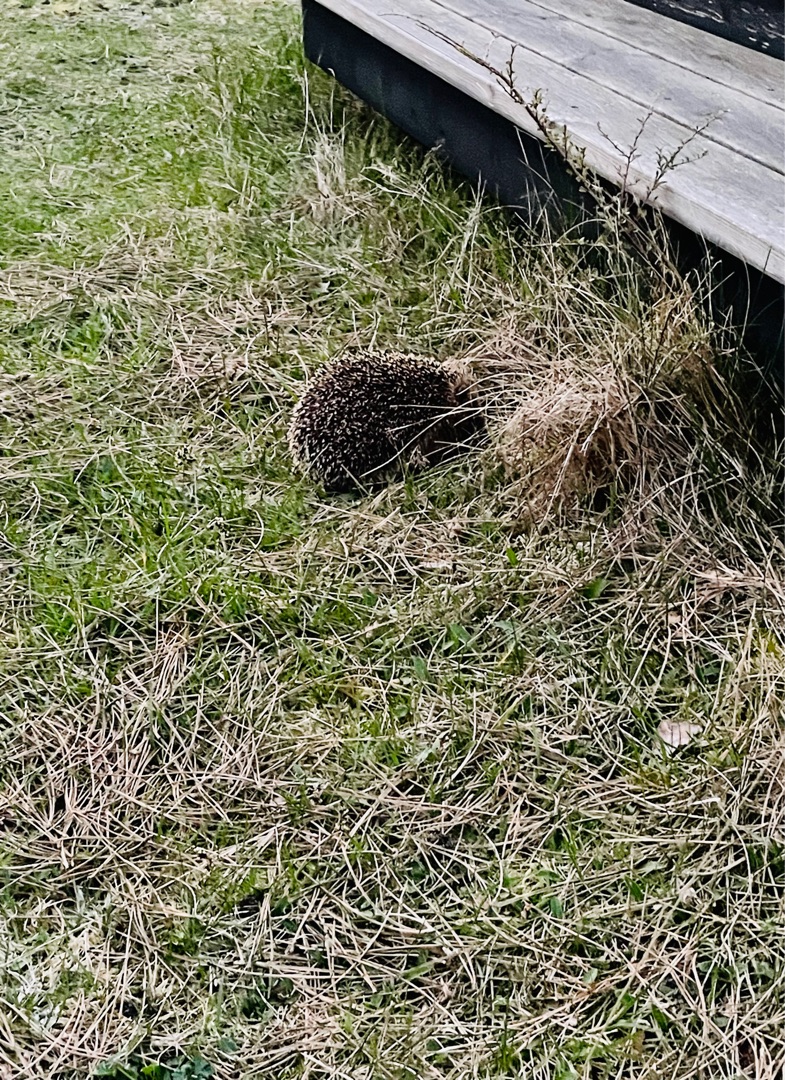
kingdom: Animalia
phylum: Chordata
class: Mammalia
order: Erinaceomorpha
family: Erinaceidae
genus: Erinaceus
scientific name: Erinaceus europaeus
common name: Pindsvin
